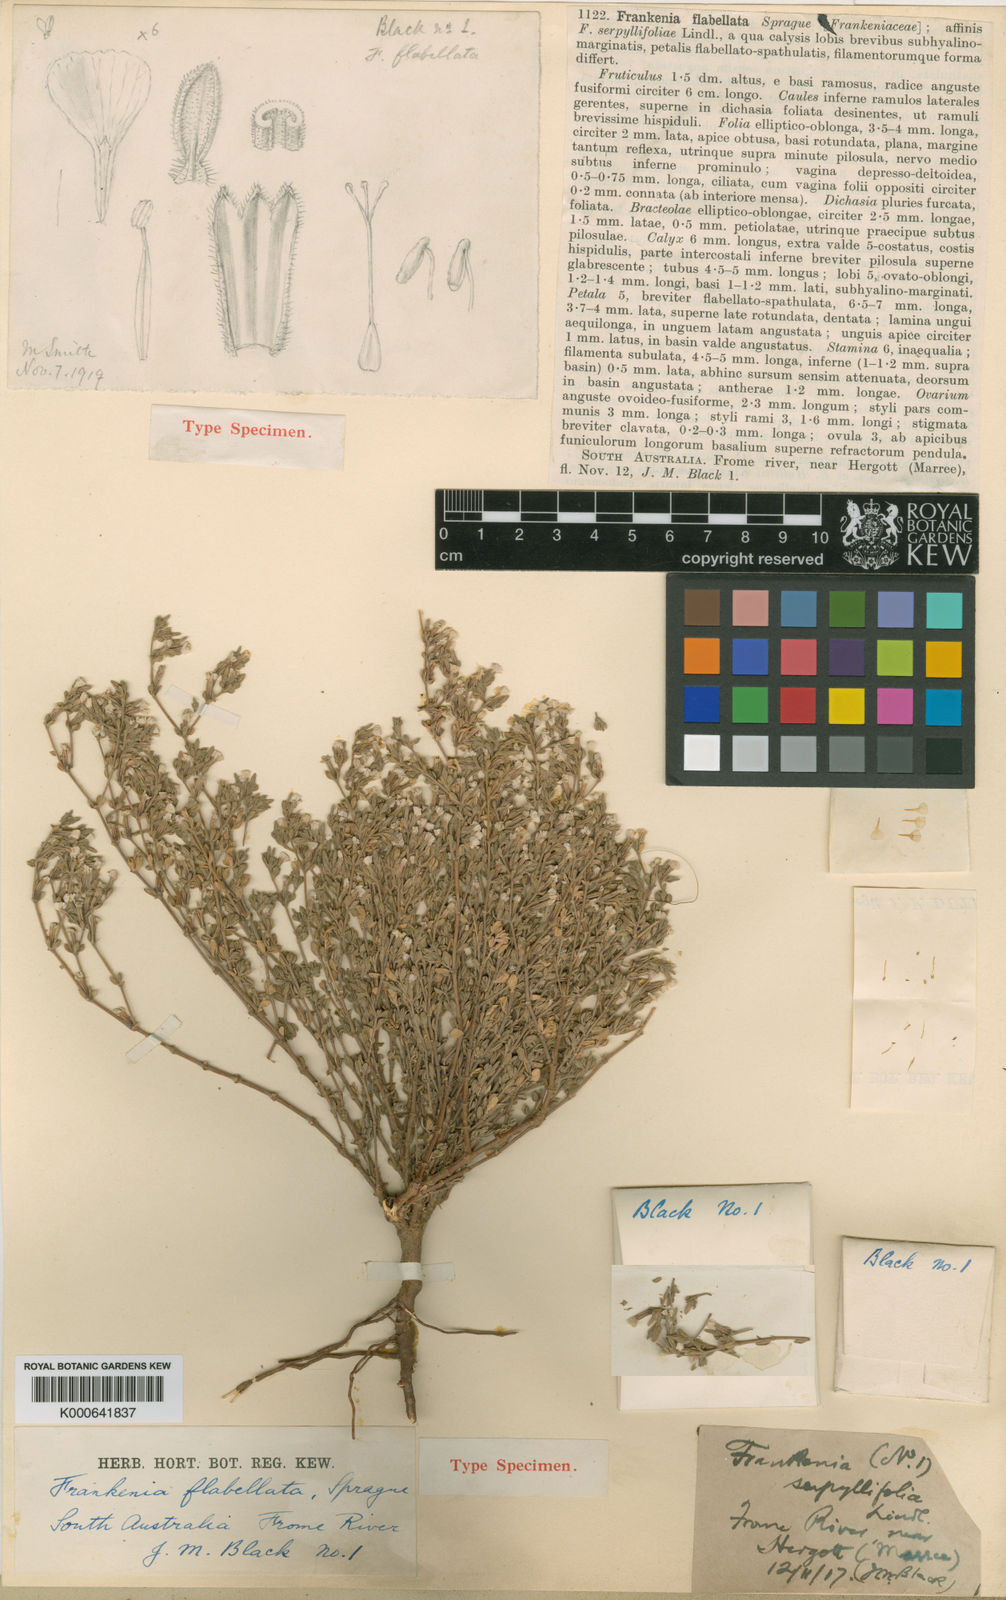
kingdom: Plantae
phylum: Tracheophyta
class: Magnoliopsida
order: Caryophyllales
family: Frankeniaceae
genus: Frankenia
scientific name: Frankenia flabellata
